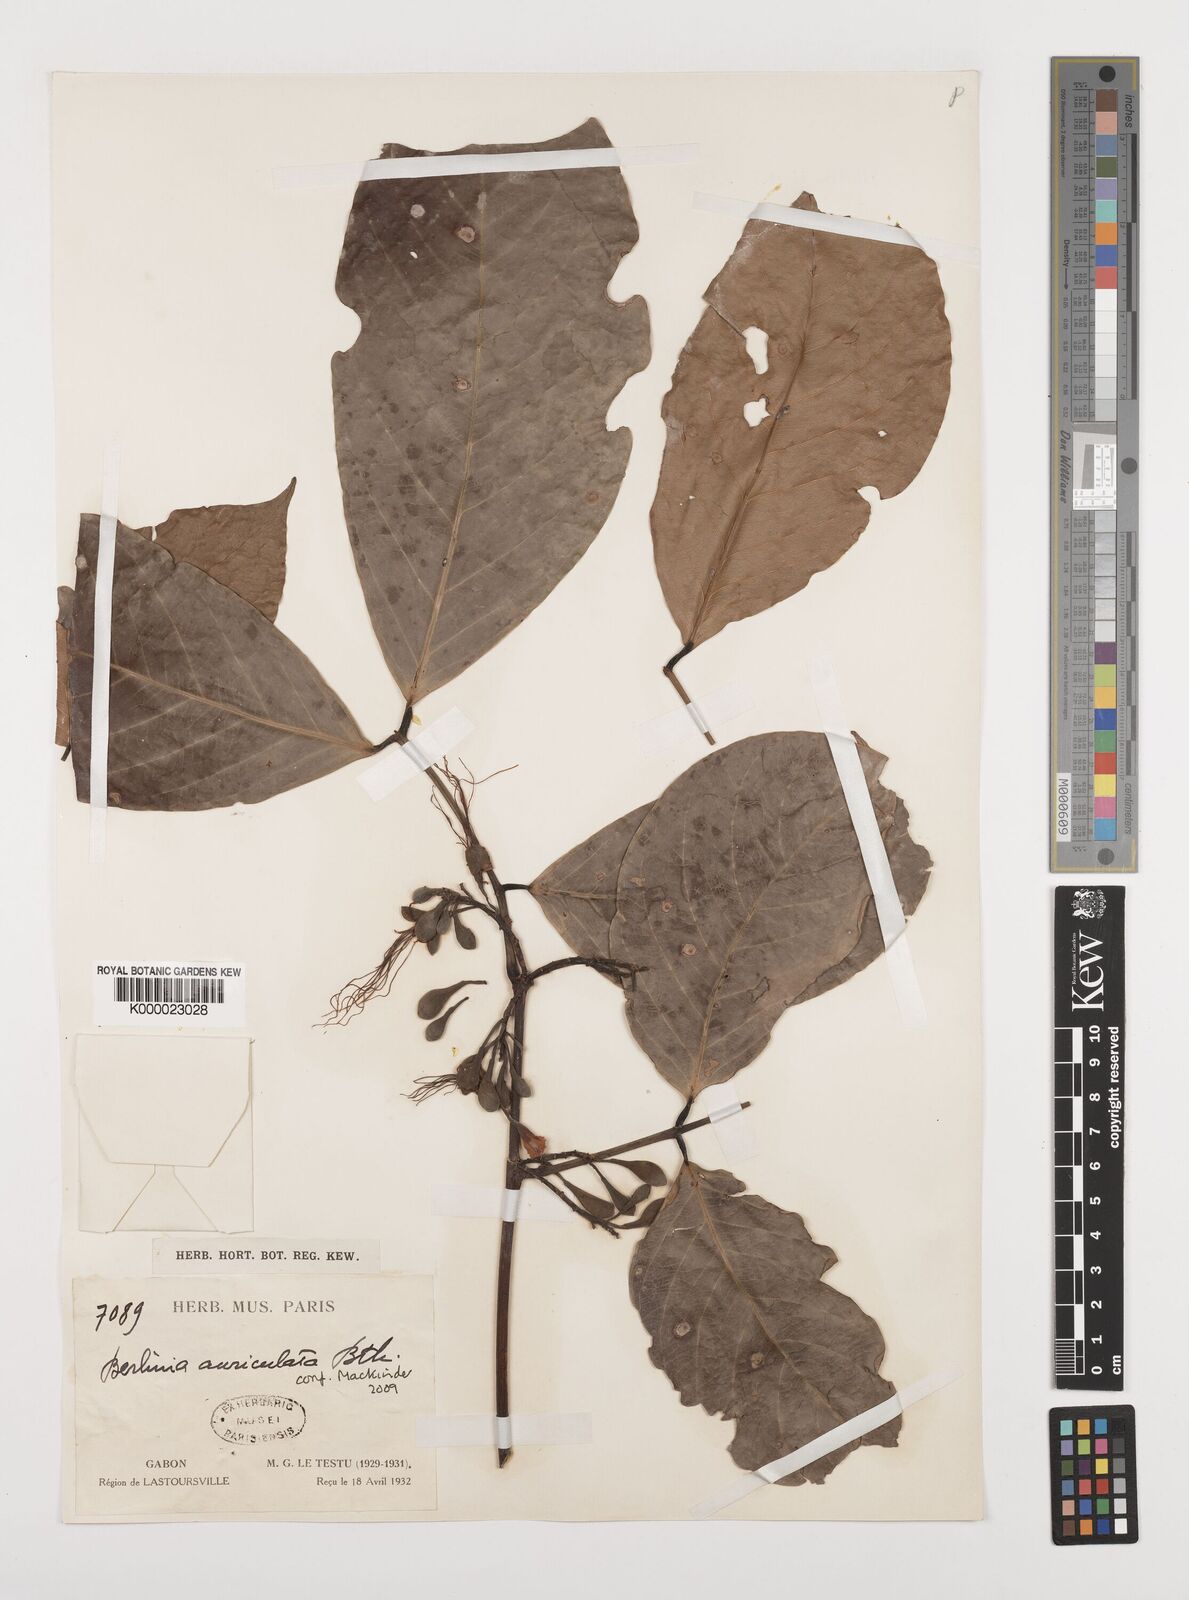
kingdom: Plantae
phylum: Tracheophyta
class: Magnoliopsida
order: Fabales
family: Fabaceae
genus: Berlinia
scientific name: Berlinia auriculata
